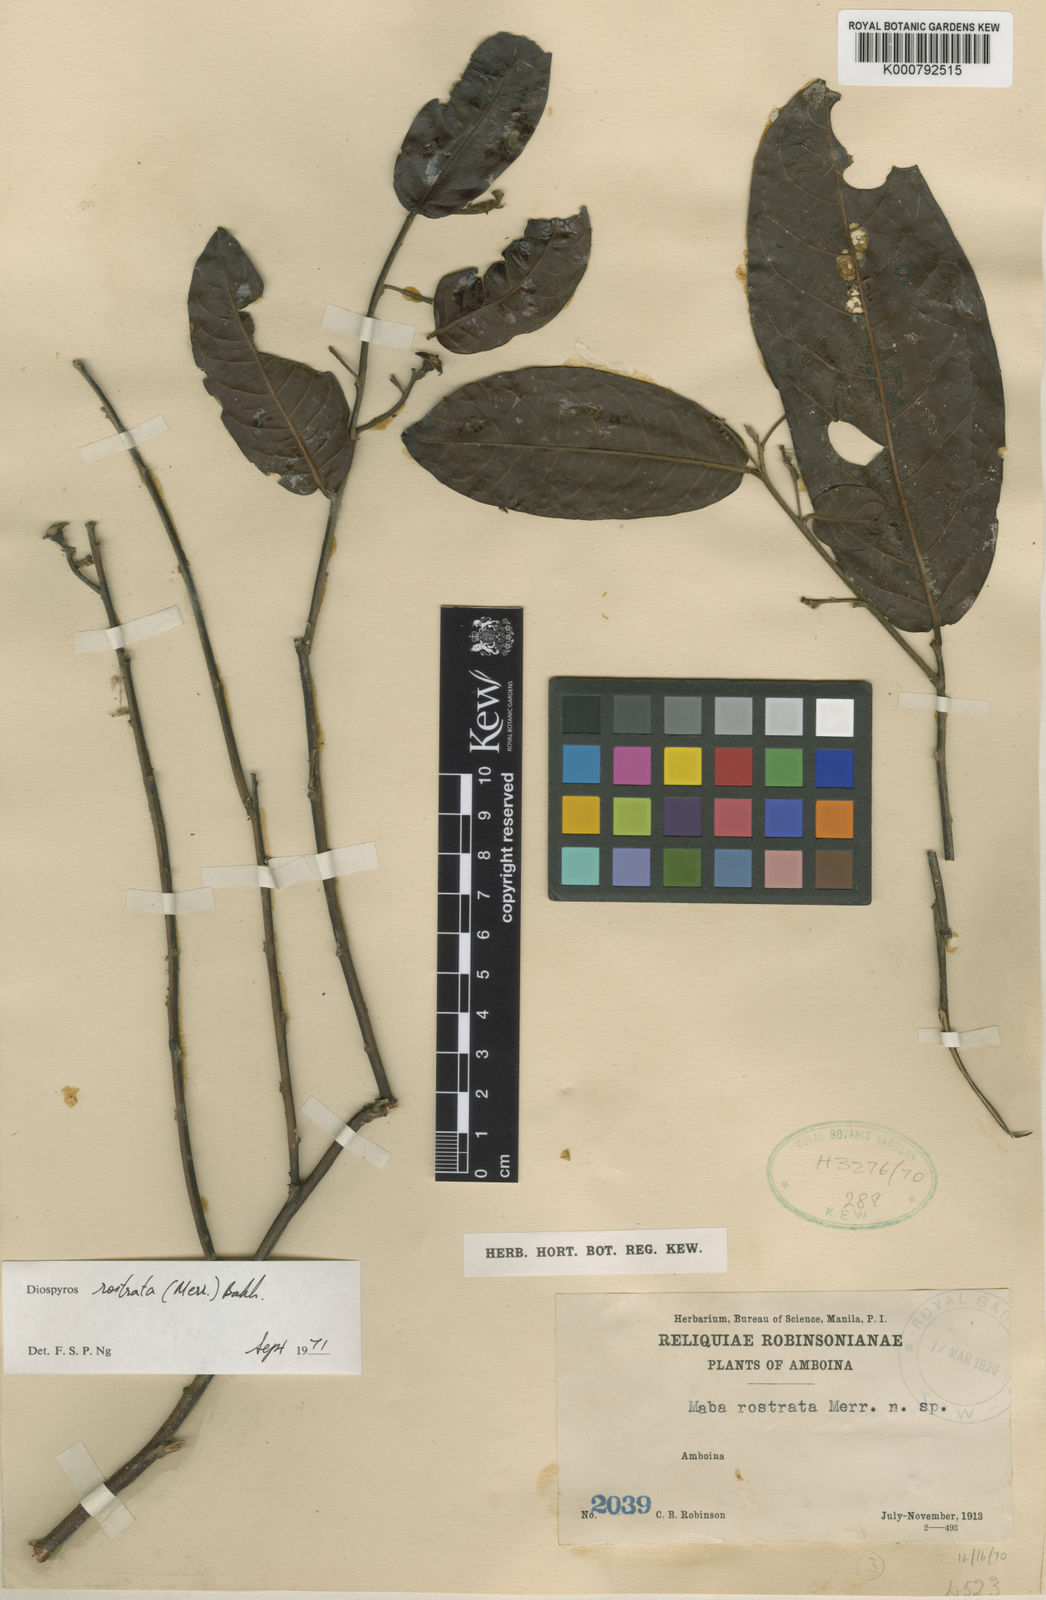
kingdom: Plantae
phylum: Tracheophyta
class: Magnoliopsida
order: Ericales
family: Ebenaceae
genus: Diospyros
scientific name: Diospyros rostrata
